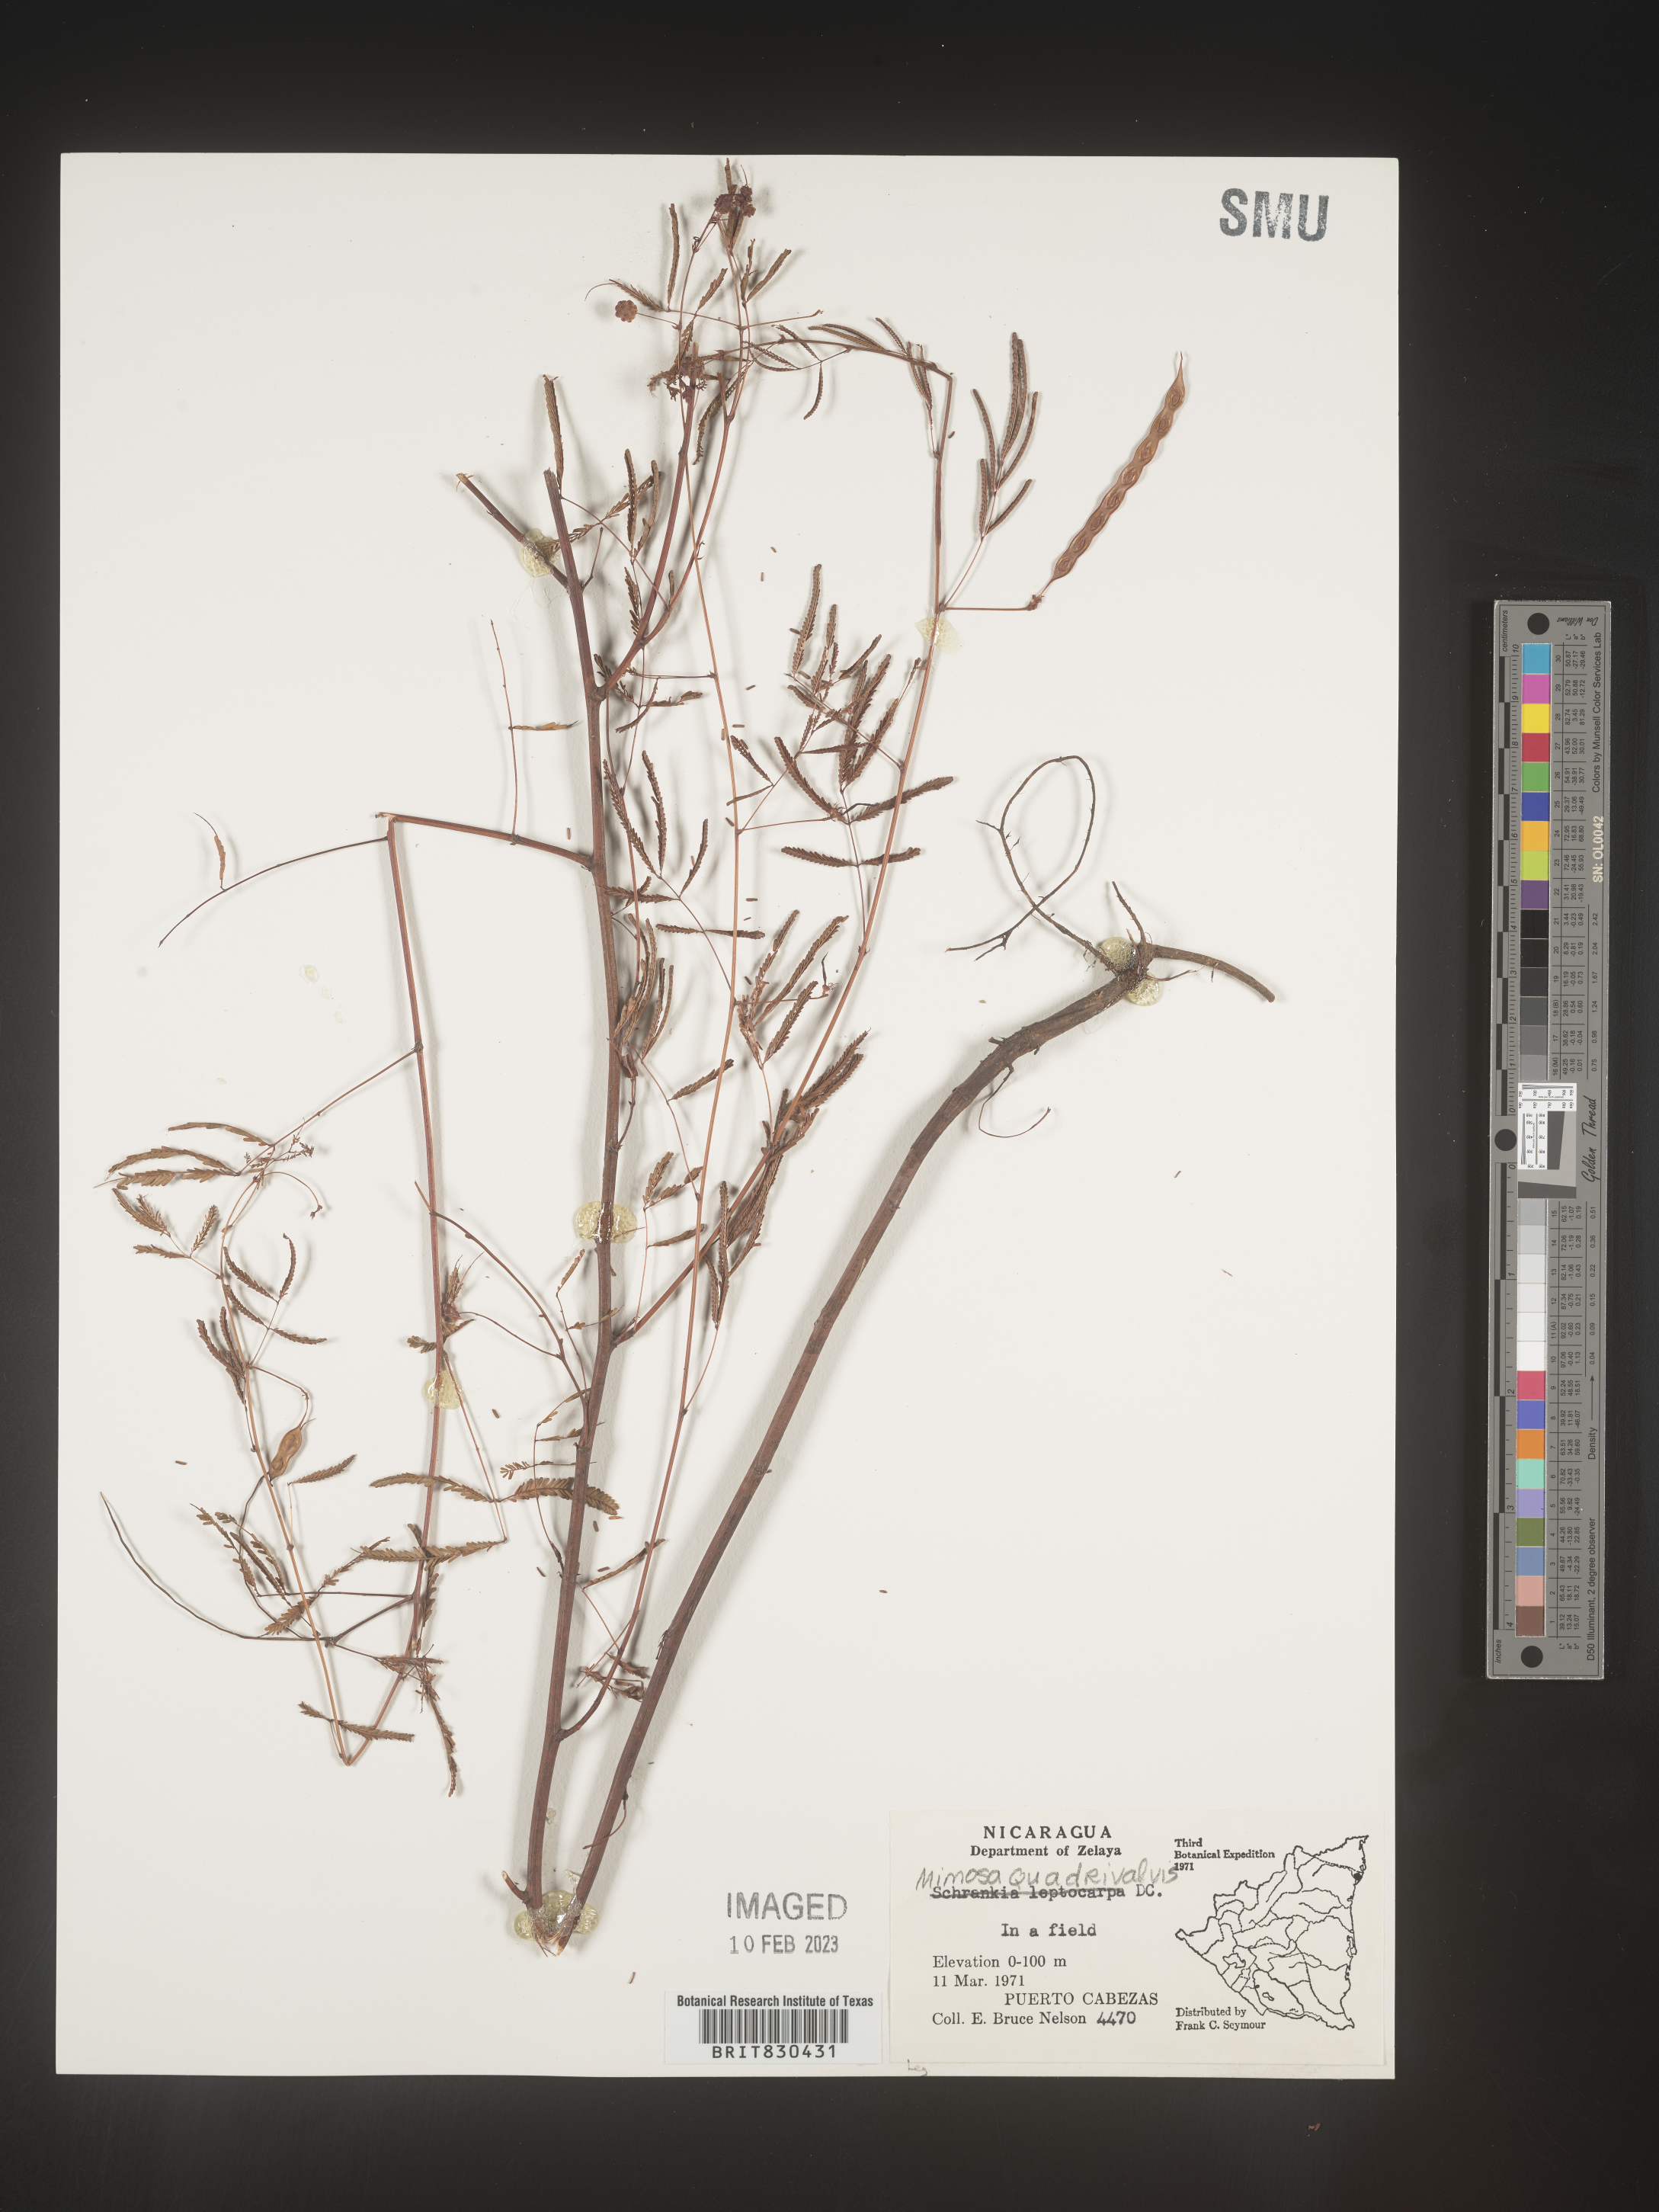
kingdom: Plantae
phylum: Tracheophyta
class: Magnoliopsida
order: Fabales
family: Fabaceae
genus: Mimosa
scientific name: Mimosa
